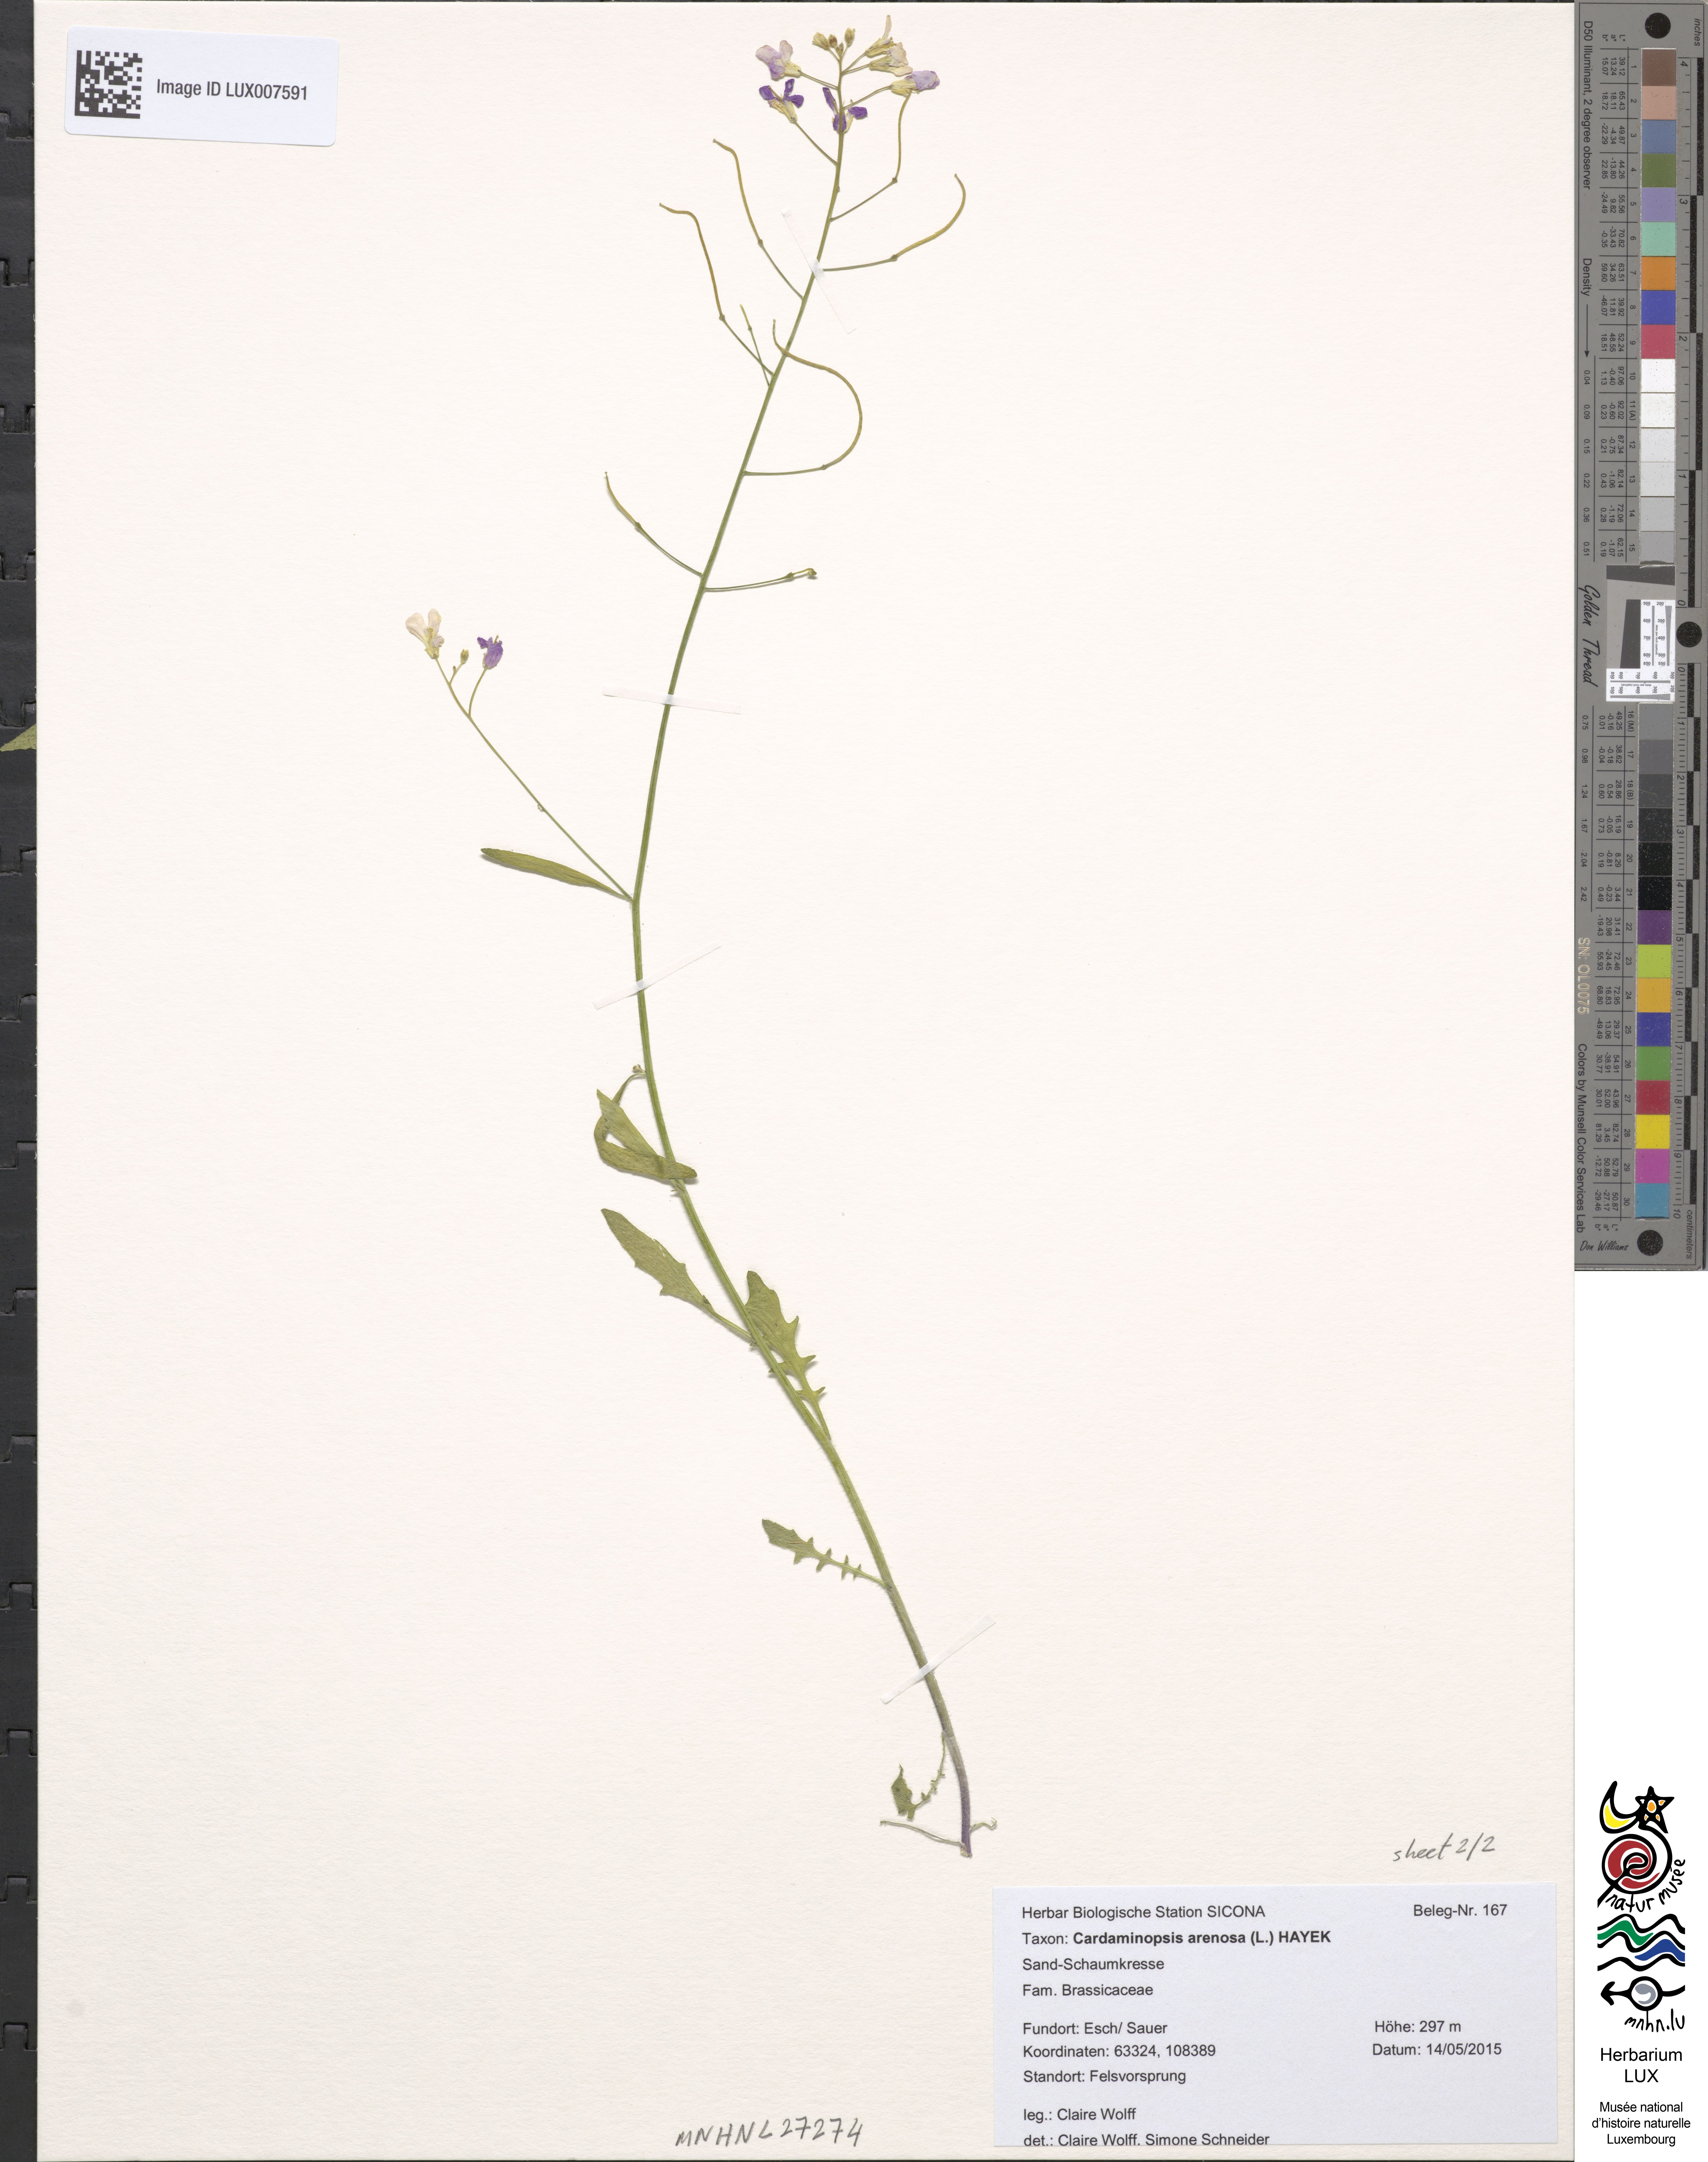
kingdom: Plantae
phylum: Tracheophyta
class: Magnoliopsida
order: Brassicales
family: Brassicaceae
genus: Arabidopsis
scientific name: Arabidopsis arenosa
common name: Sand rock-cress
